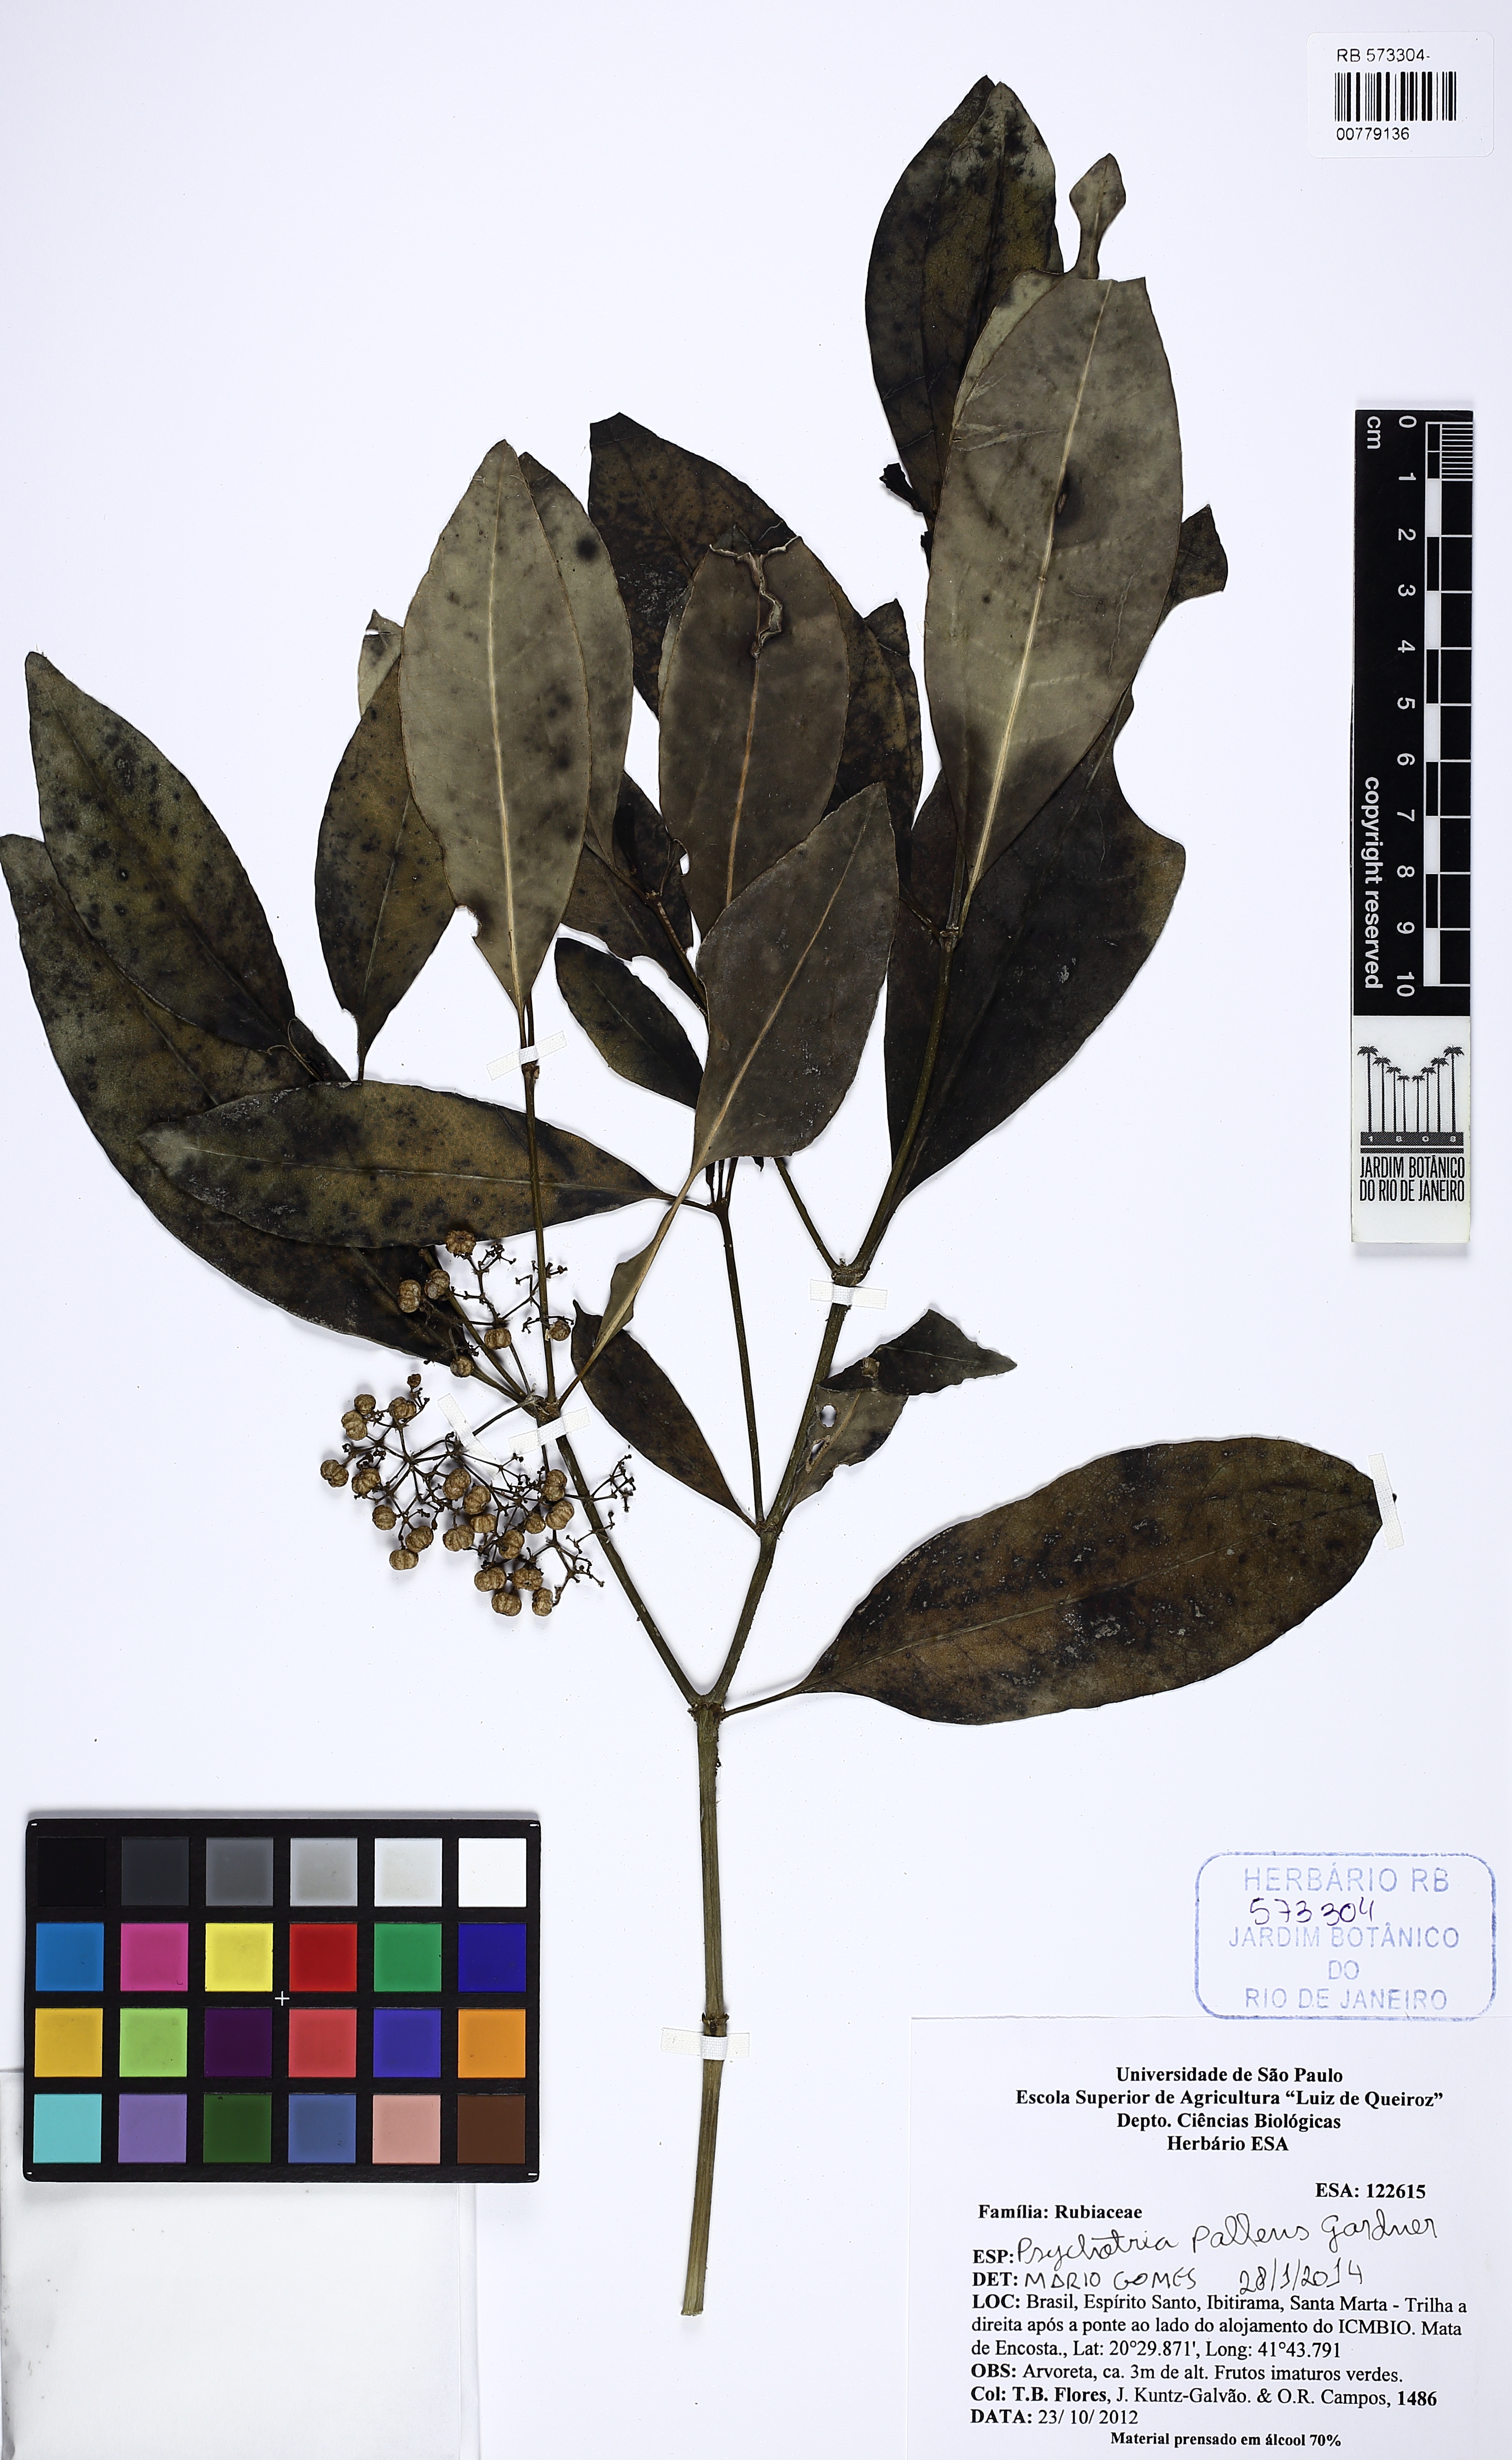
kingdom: Plantae
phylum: Tracheophyta
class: Magnoliopsida
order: Gentianales
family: Rubiaceae
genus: Psychotria
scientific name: Psychotria pallens
